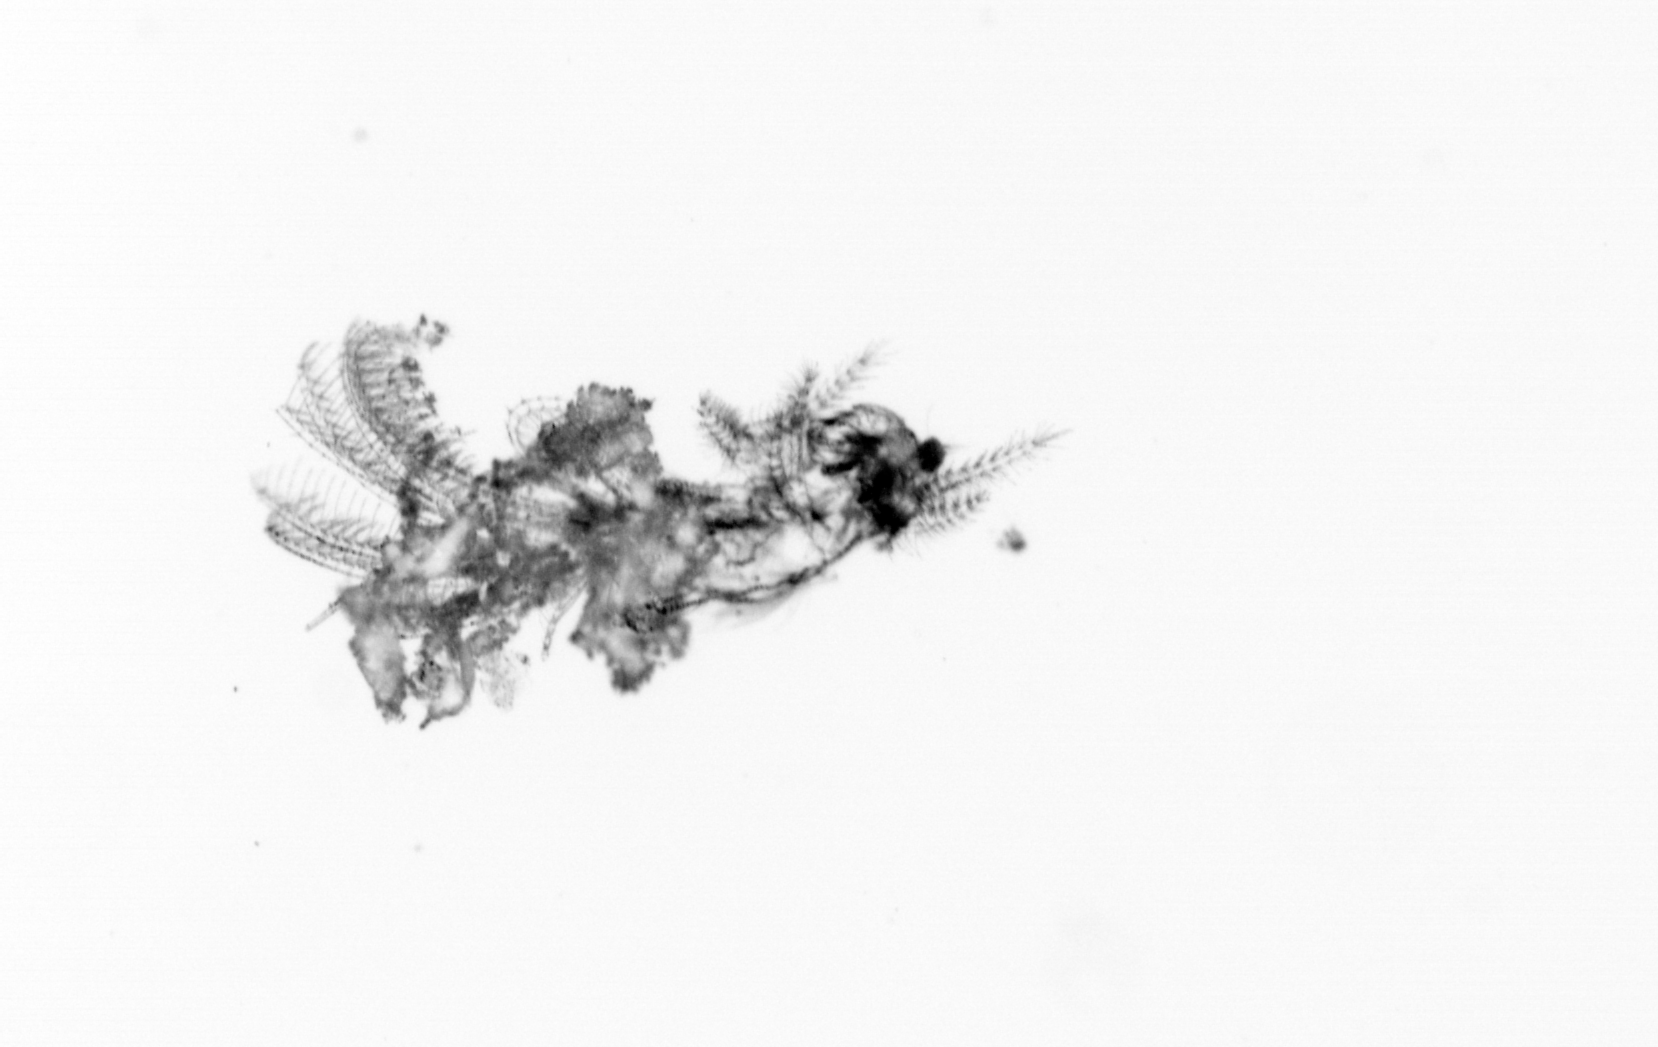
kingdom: Animalia
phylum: Arthropoda
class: Maxillopoda
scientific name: Maxillopoda
